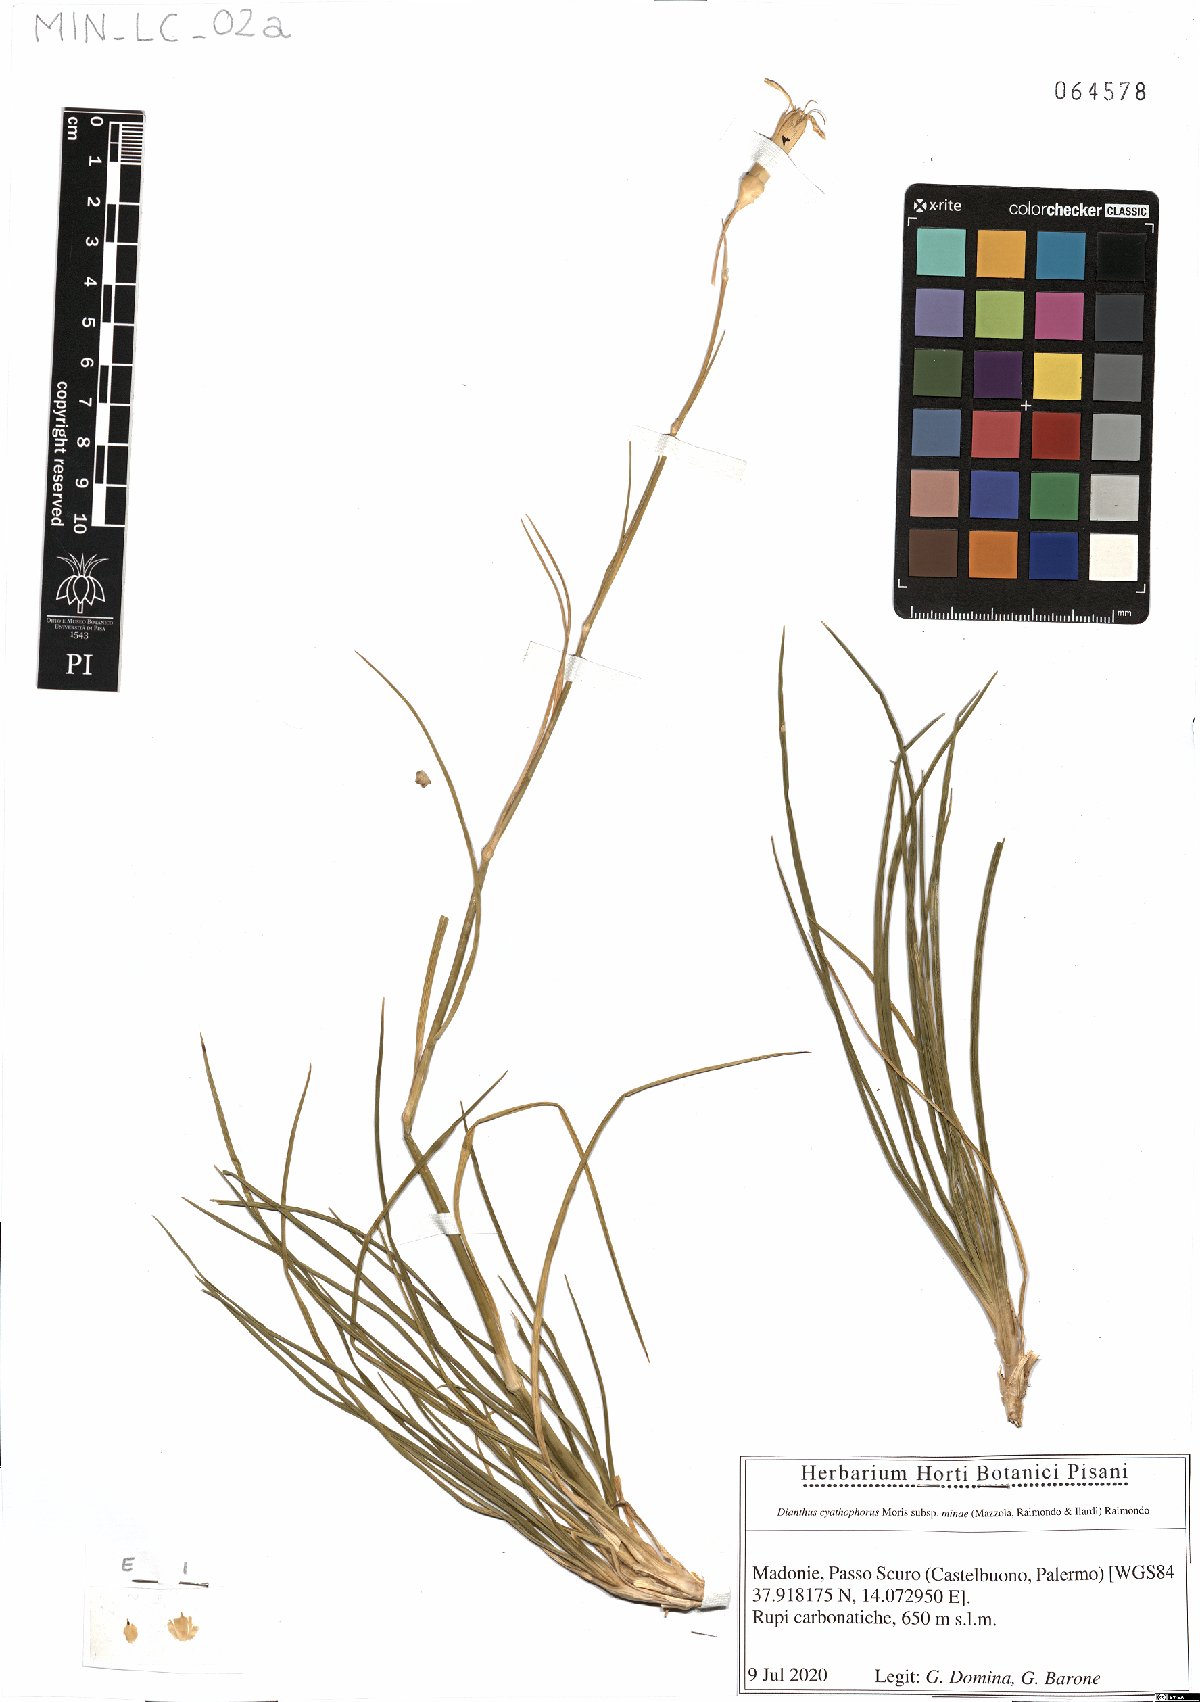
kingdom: Plantae
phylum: Tracheophyta
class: Magnoliopsida
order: Caryophyllales
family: Caryophyllaceae
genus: Dianthus
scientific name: Dianthus siculus
